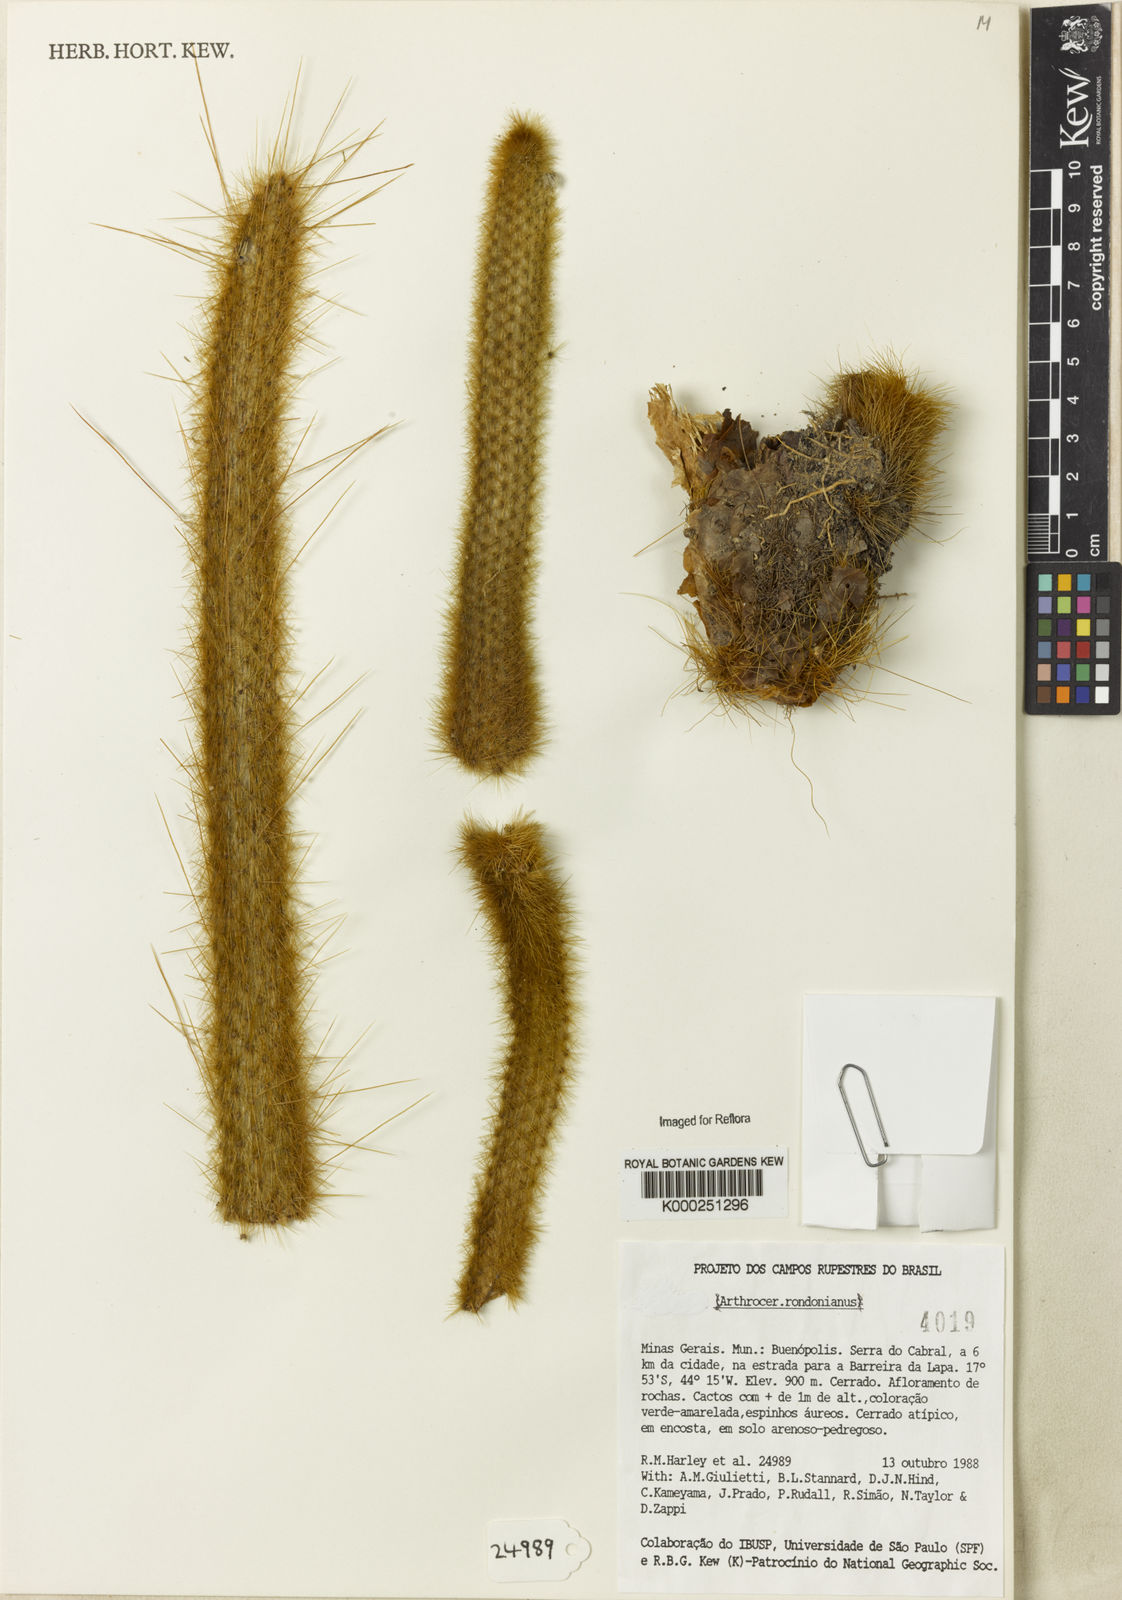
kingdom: Plantae
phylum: Tracheophyta
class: Magnoliopsida
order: Caryophyllales
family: Cactaceae
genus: Arthrocereus
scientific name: Arthrocereus rondonianus
